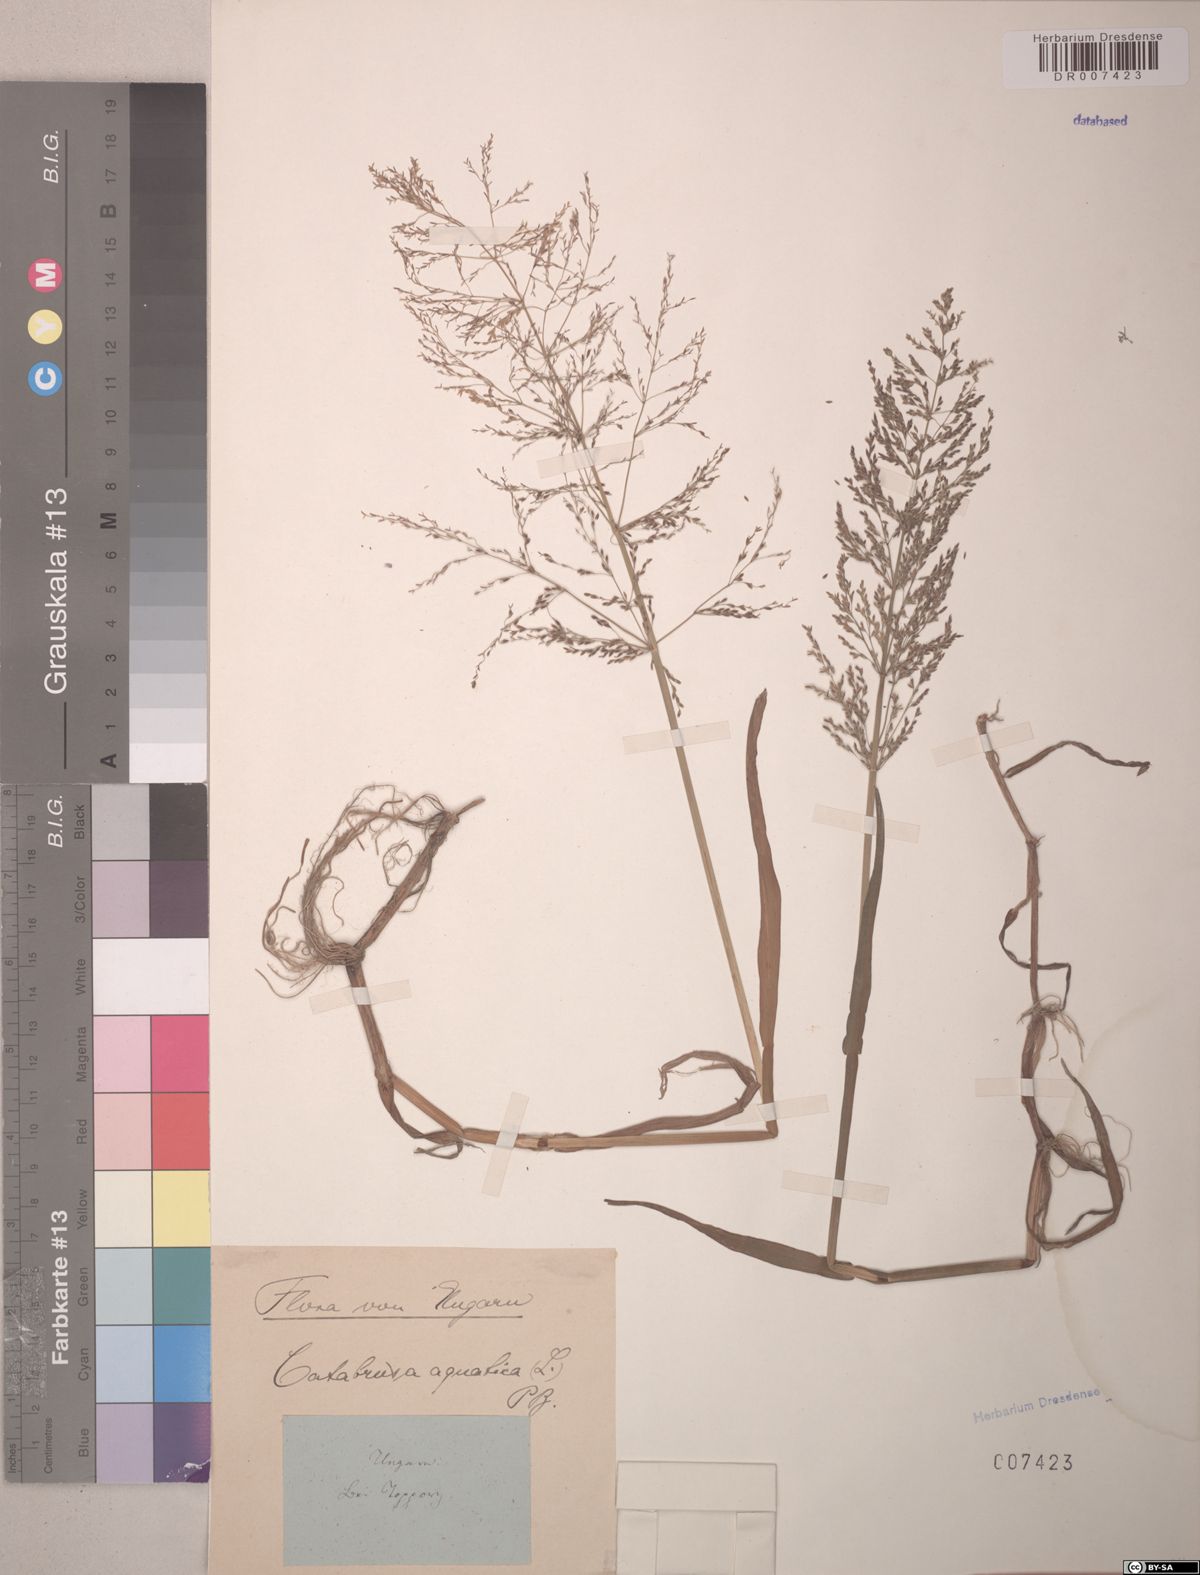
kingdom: Plantae
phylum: Tracheophyta
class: Liliopsida
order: Poales
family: Poaceae
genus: Catabrosa
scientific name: Catabrosa aquatica
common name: Whorl-grass
